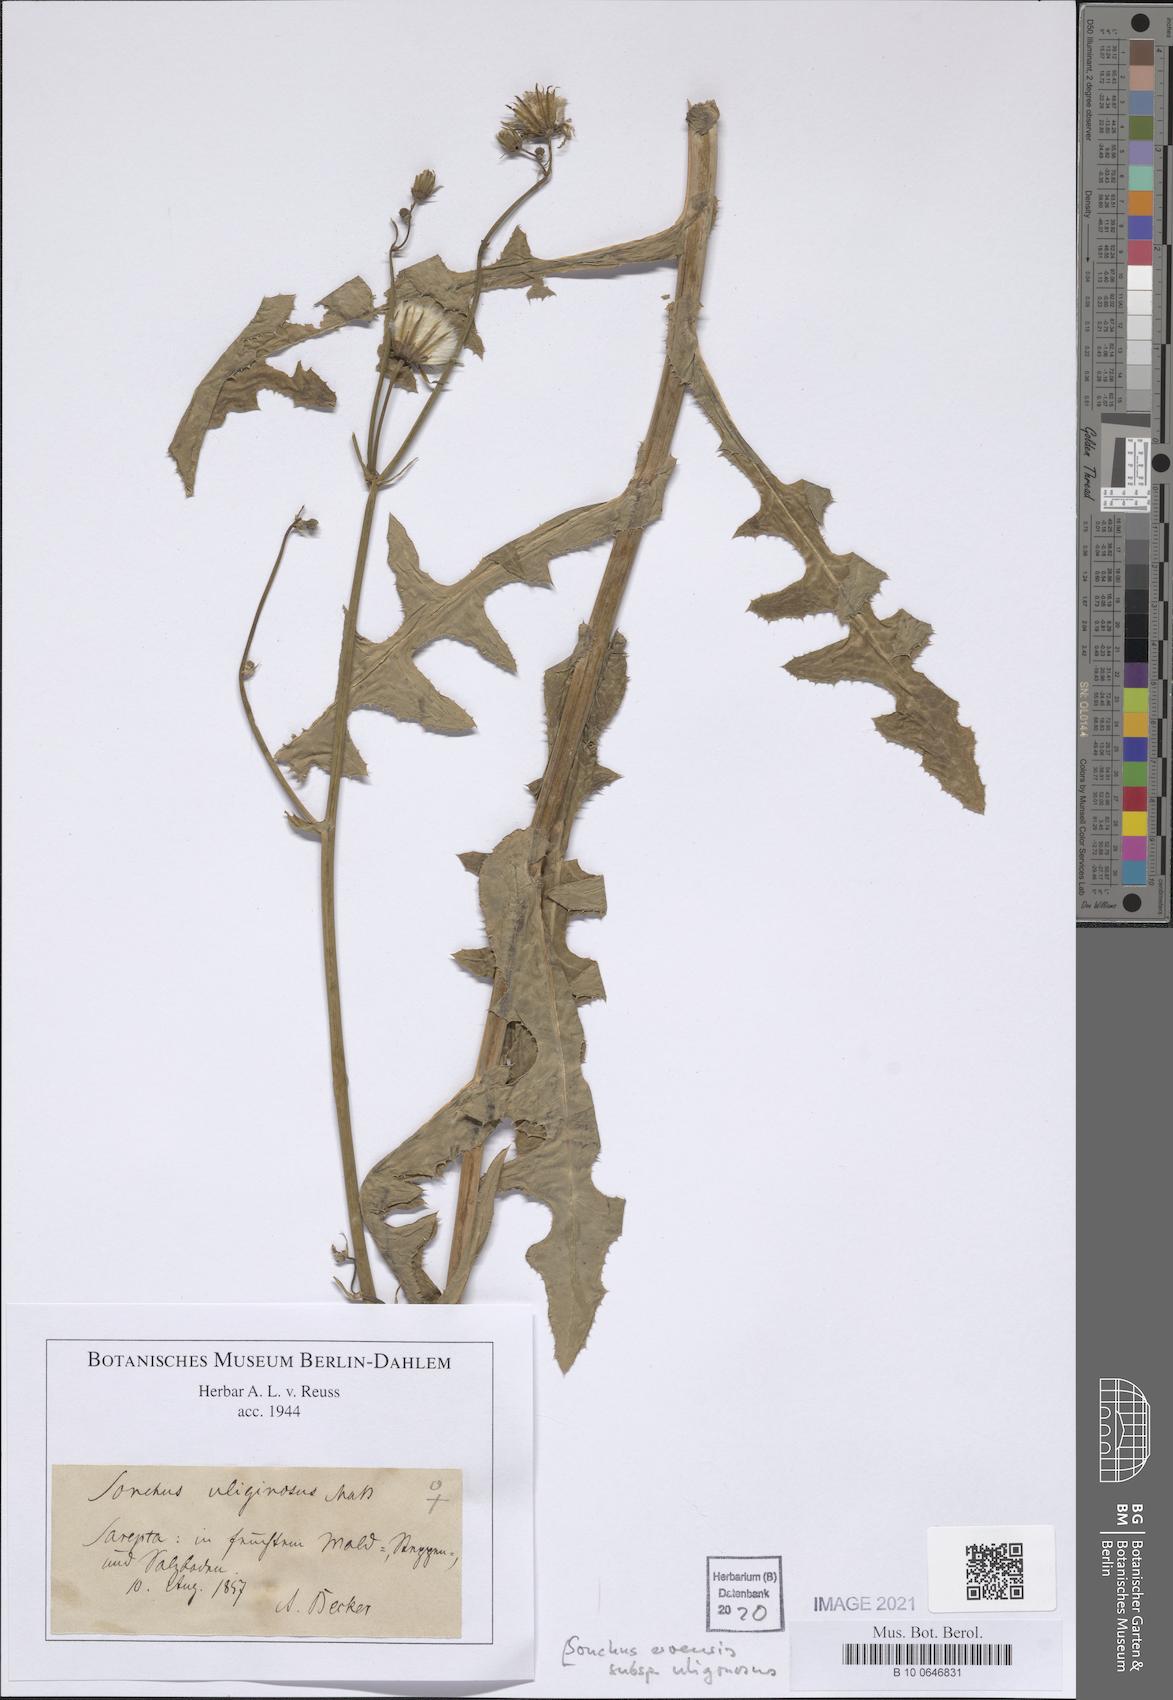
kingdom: Plantae
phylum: Tracheophyta
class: Magnoliopsida
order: Asterales
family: Asteraceae
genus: Sonchus
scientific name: Sonchus arvensis
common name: Perennial sow-thistle
